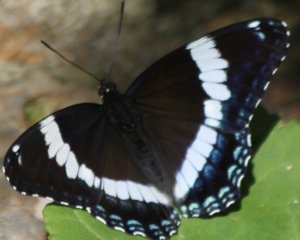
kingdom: Animalia
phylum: Arthropoda
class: Insecta
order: Lepidoptera
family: Nymphalidae
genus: Limenitis
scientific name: Limenitis arthemis
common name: Red-spotted Admiral
